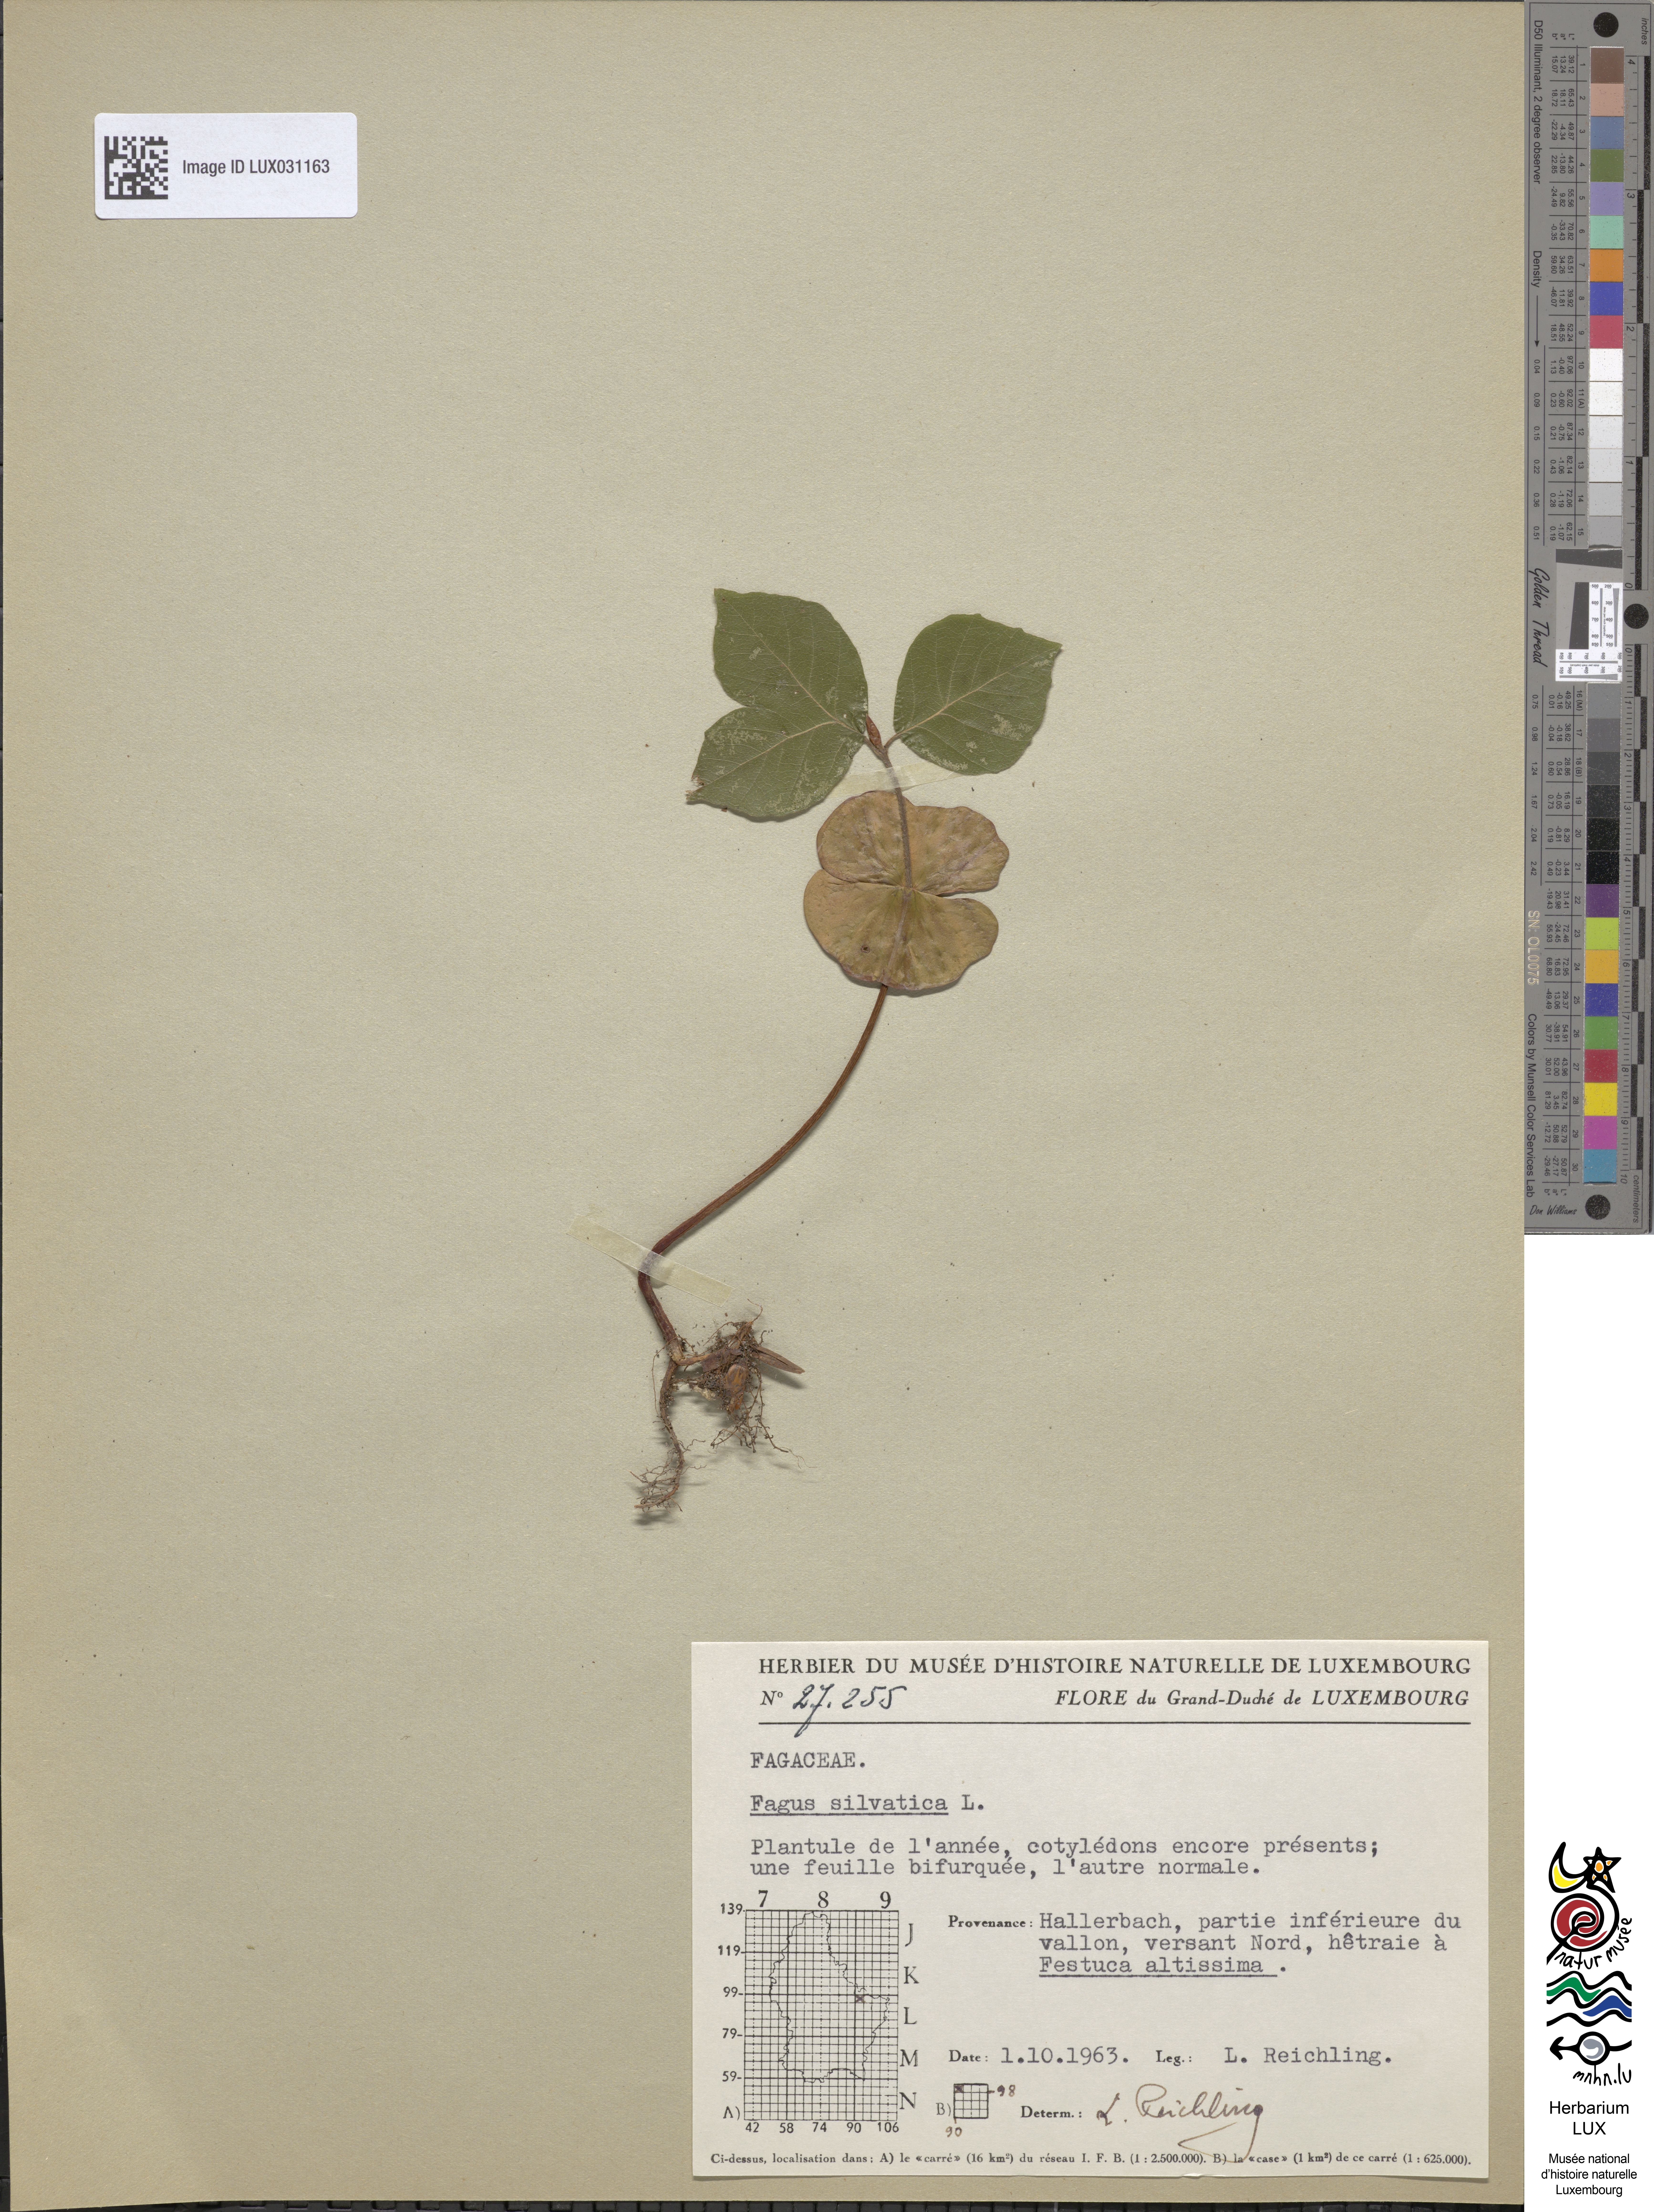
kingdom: Plantae
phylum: Tracheophyta
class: Magnoliopsida
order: Fagales
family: Fagaceae
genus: Fagus
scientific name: Fagus sylvatica
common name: Beech
